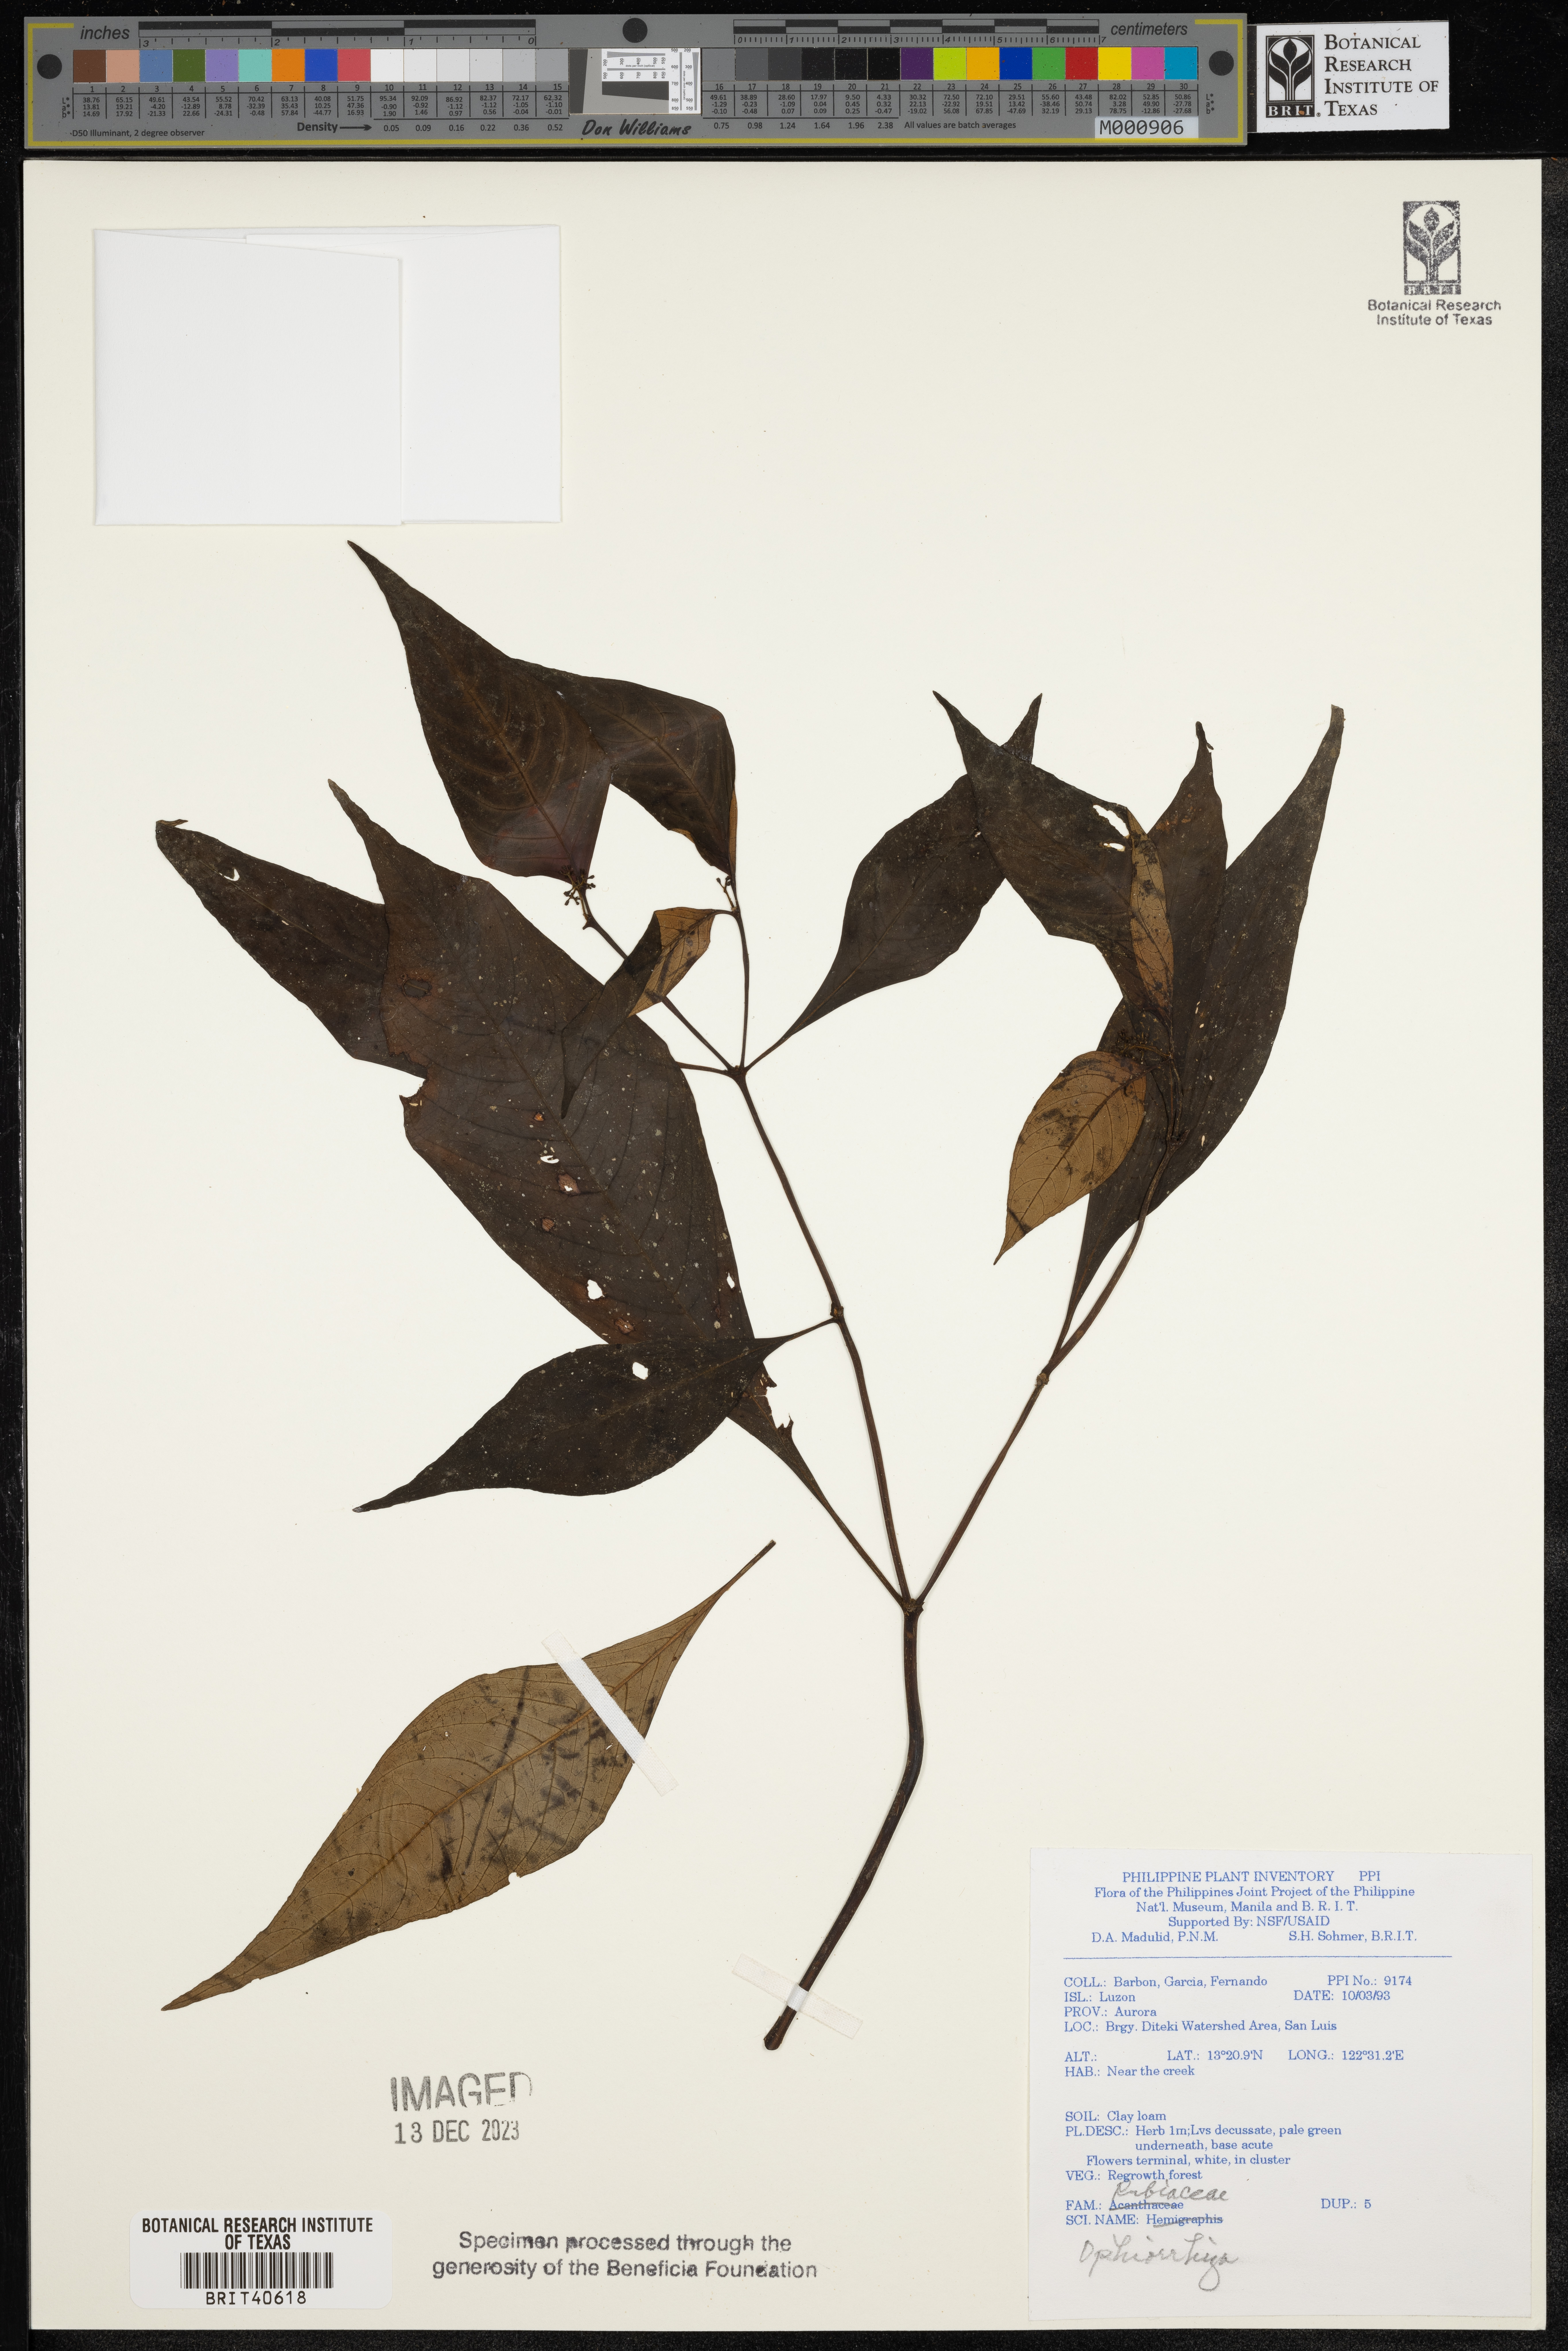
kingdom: Plantae
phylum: Tracheophyta
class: Magnoliopsida
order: Gentianales
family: Rubiaceae
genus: Ophiorrhiza
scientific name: Ophiorrhiza
